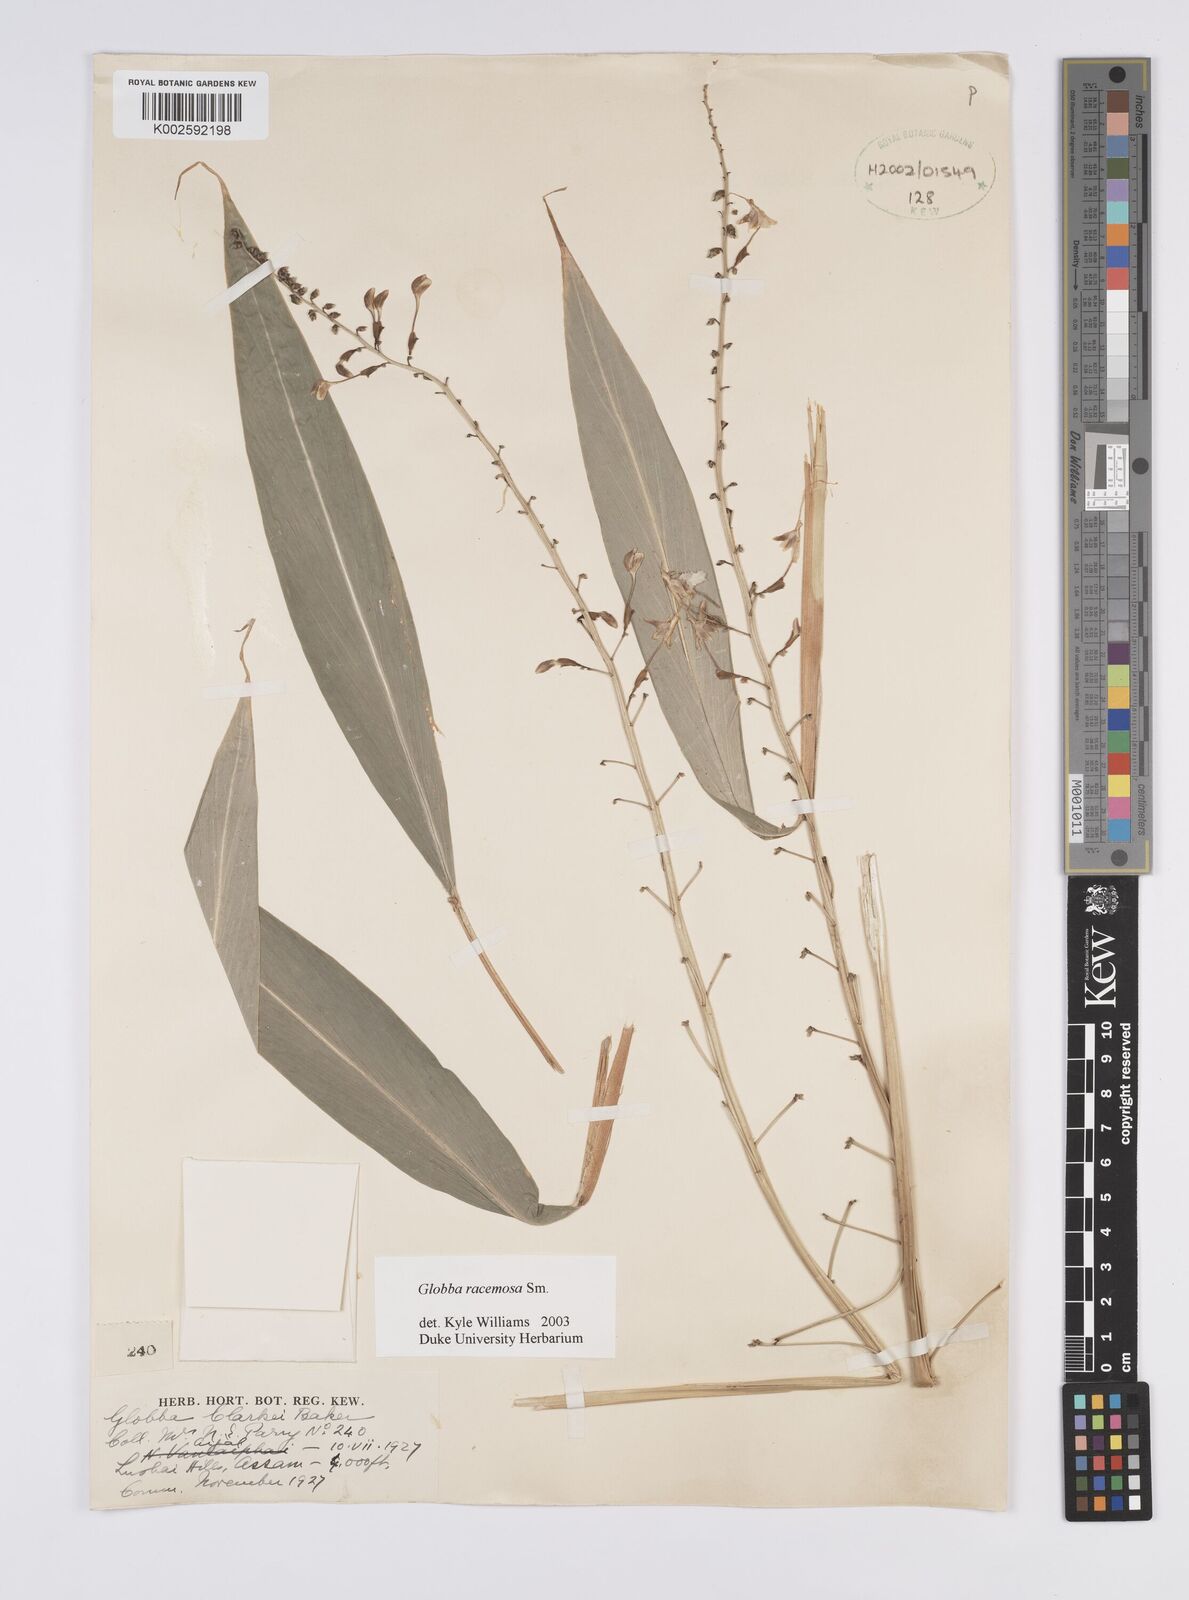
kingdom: Plantae
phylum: Tracheophyta
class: Liliopsida
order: Zingiberales
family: Zingiberaceae
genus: Globba
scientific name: Globba racemosa
